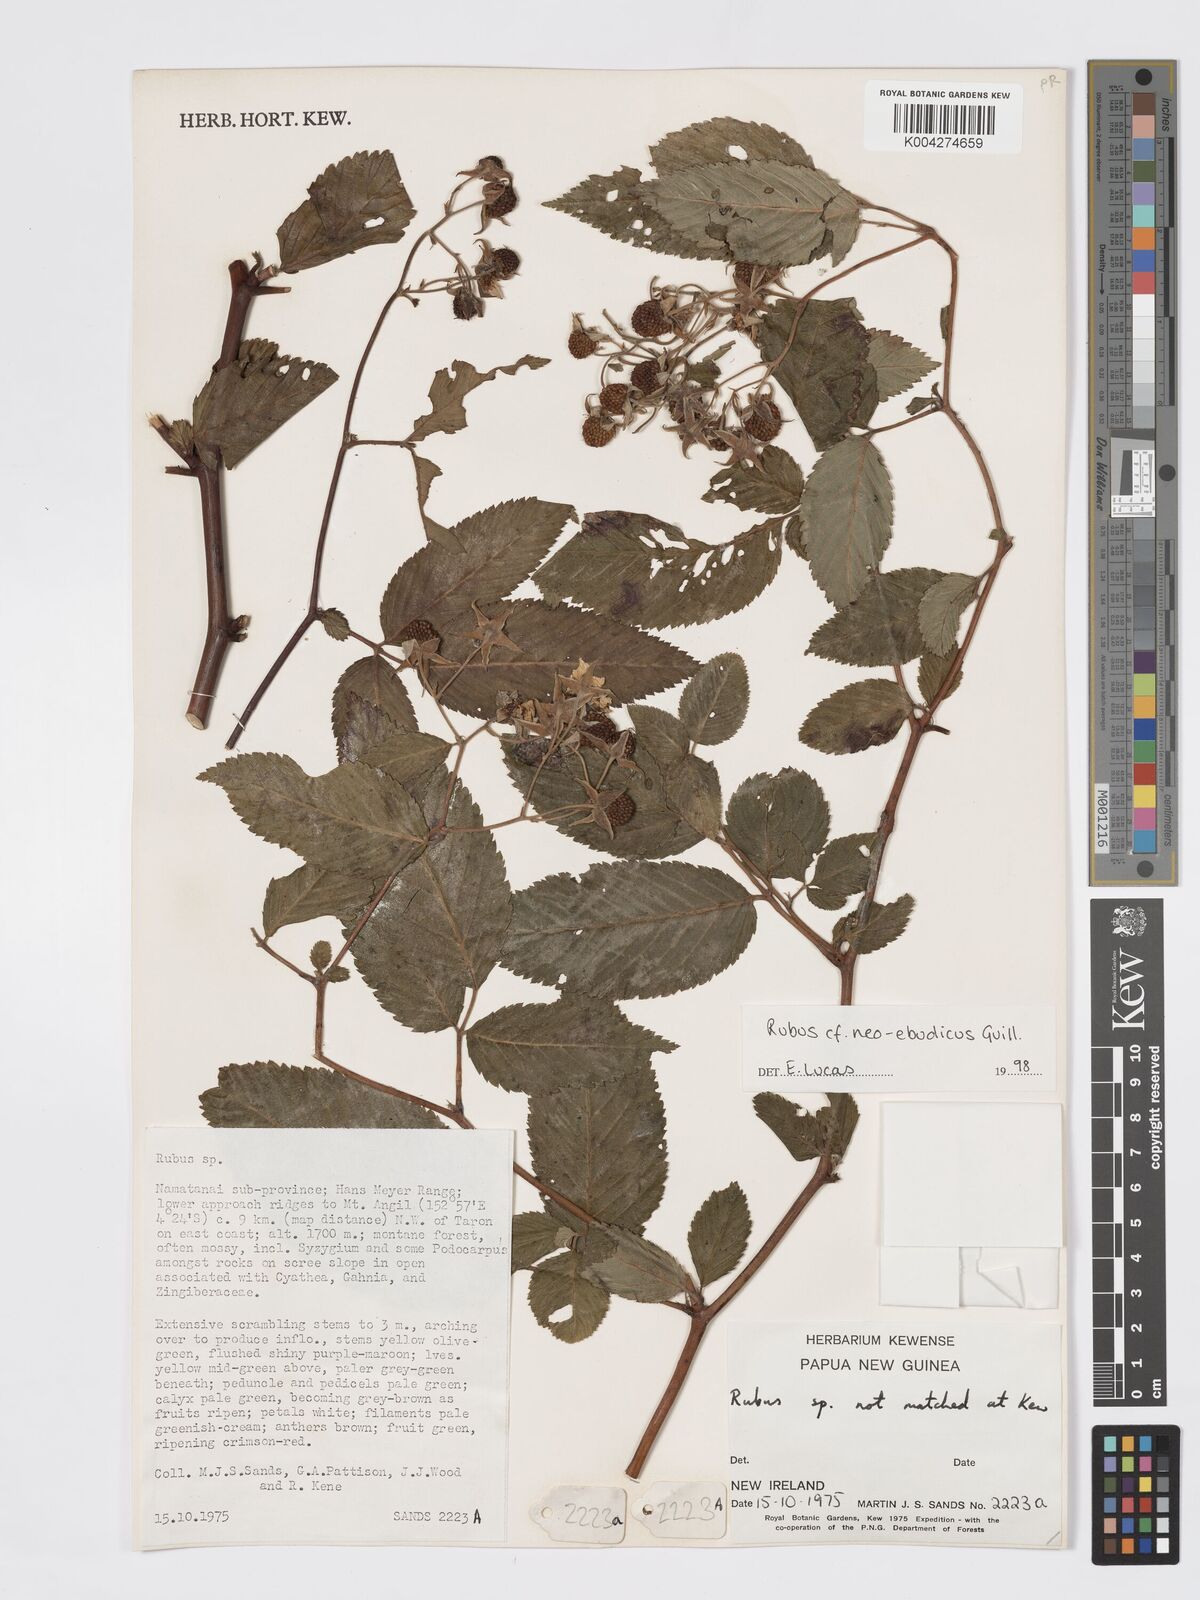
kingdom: Plantae
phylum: Tracheophyta
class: Magnoliopsida
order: Rosales
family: Rosaceae
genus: Rubus
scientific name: Rubus neoebudicus
